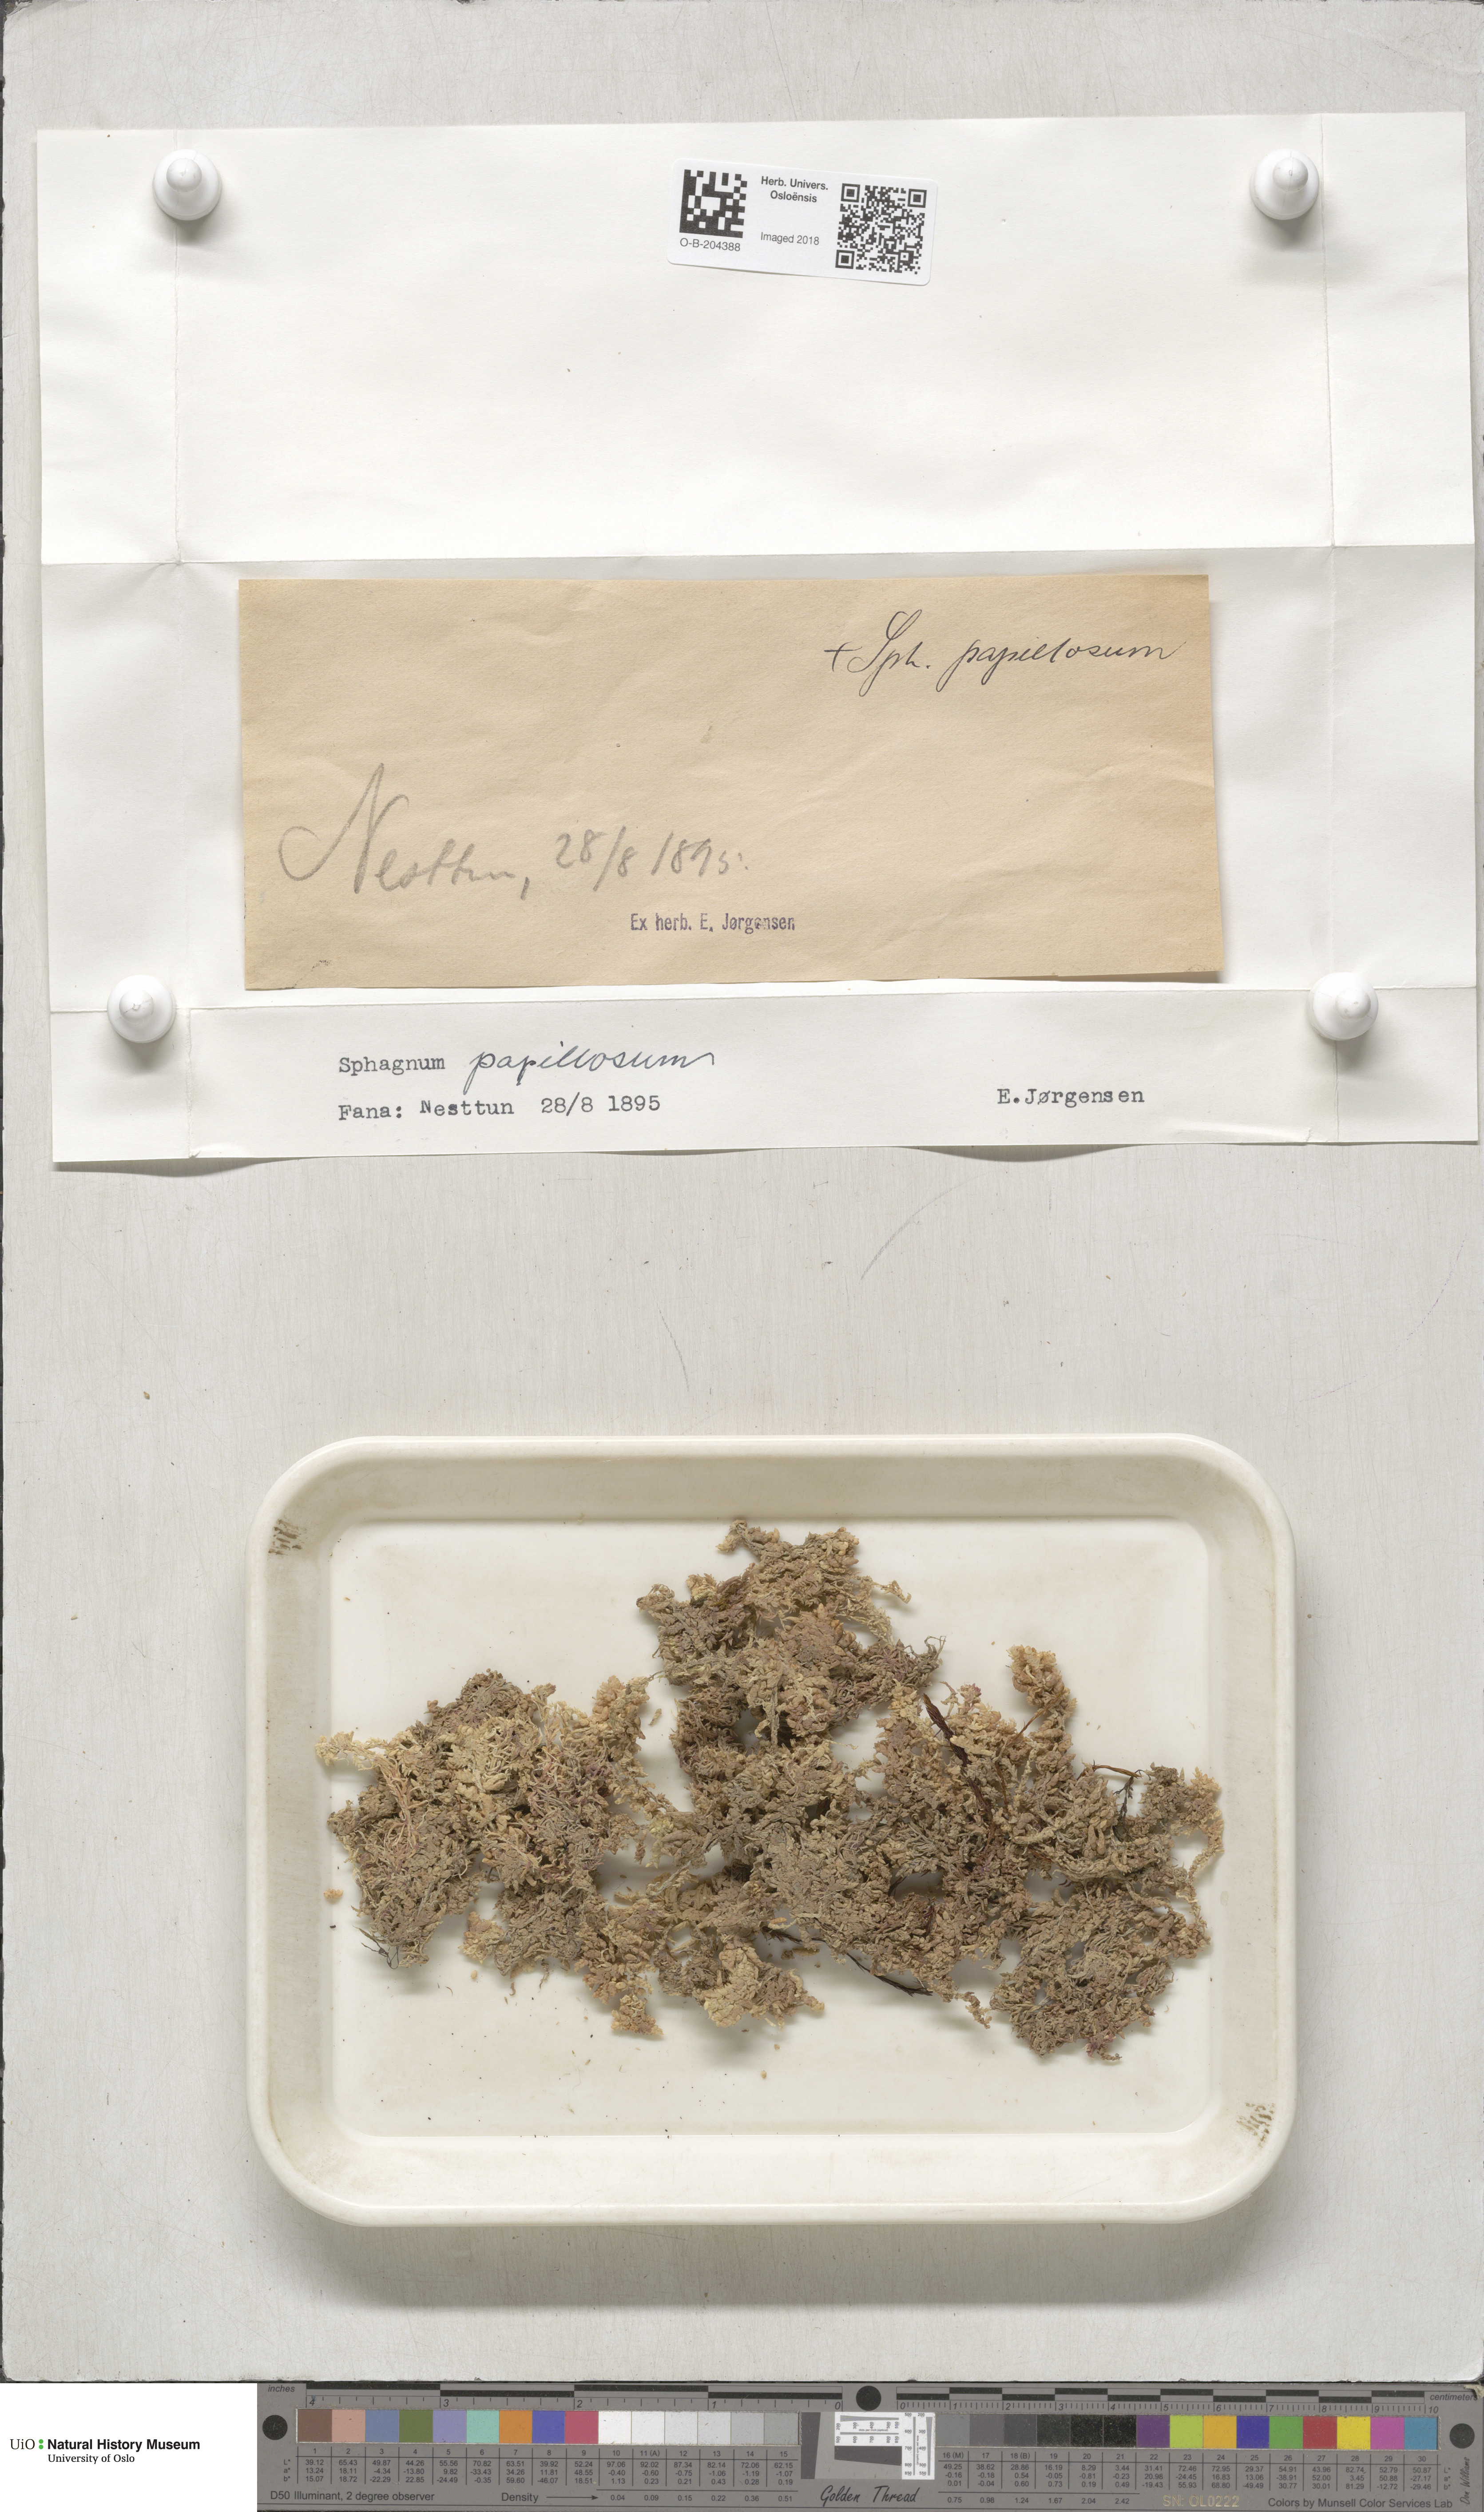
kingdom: Plantae
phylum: Bryophyta
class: Sphagnopsida
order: Sphagnales
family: Sphagnaceae
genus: Sphagnum
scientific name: Sphagnum papillosum
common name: Papillose peat moss
